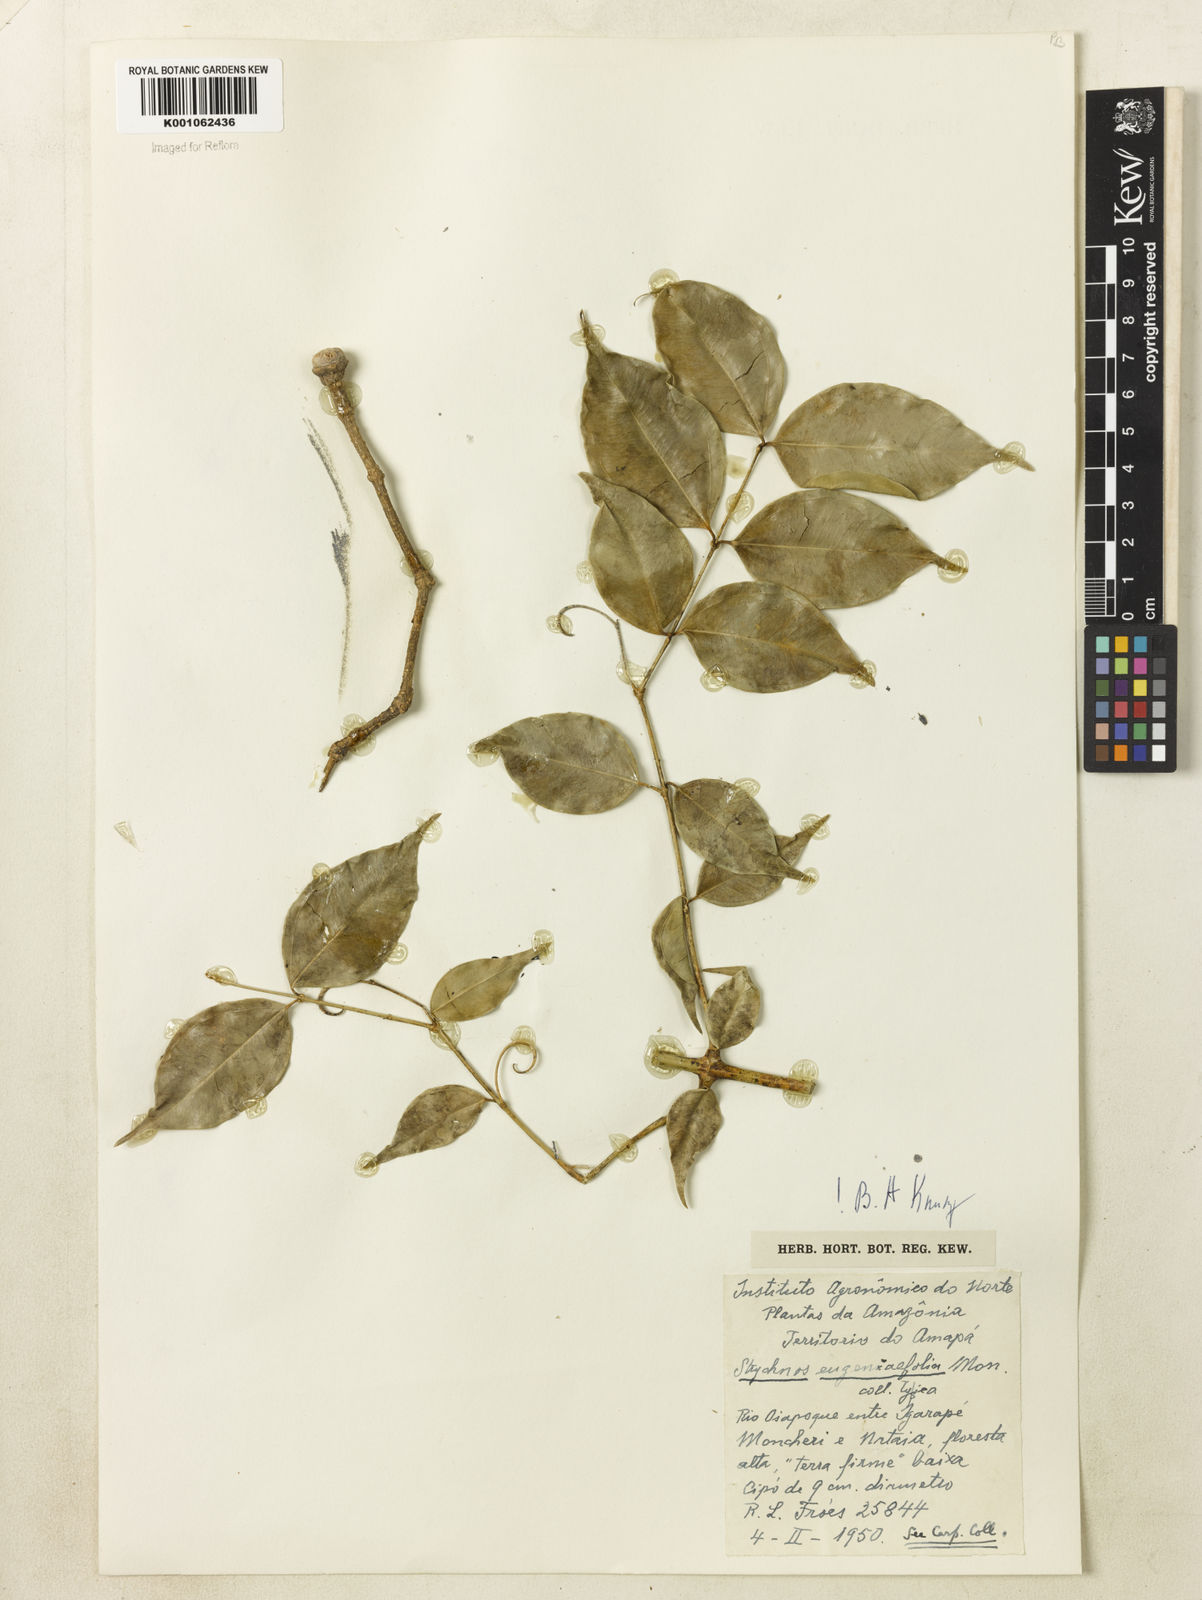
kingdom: Plantae
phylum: Tracheophyta
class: Magnoliopsida
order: Gentianales
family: Loganiaceae
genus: Strychnos
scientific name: Strychnos eugeniifolia
